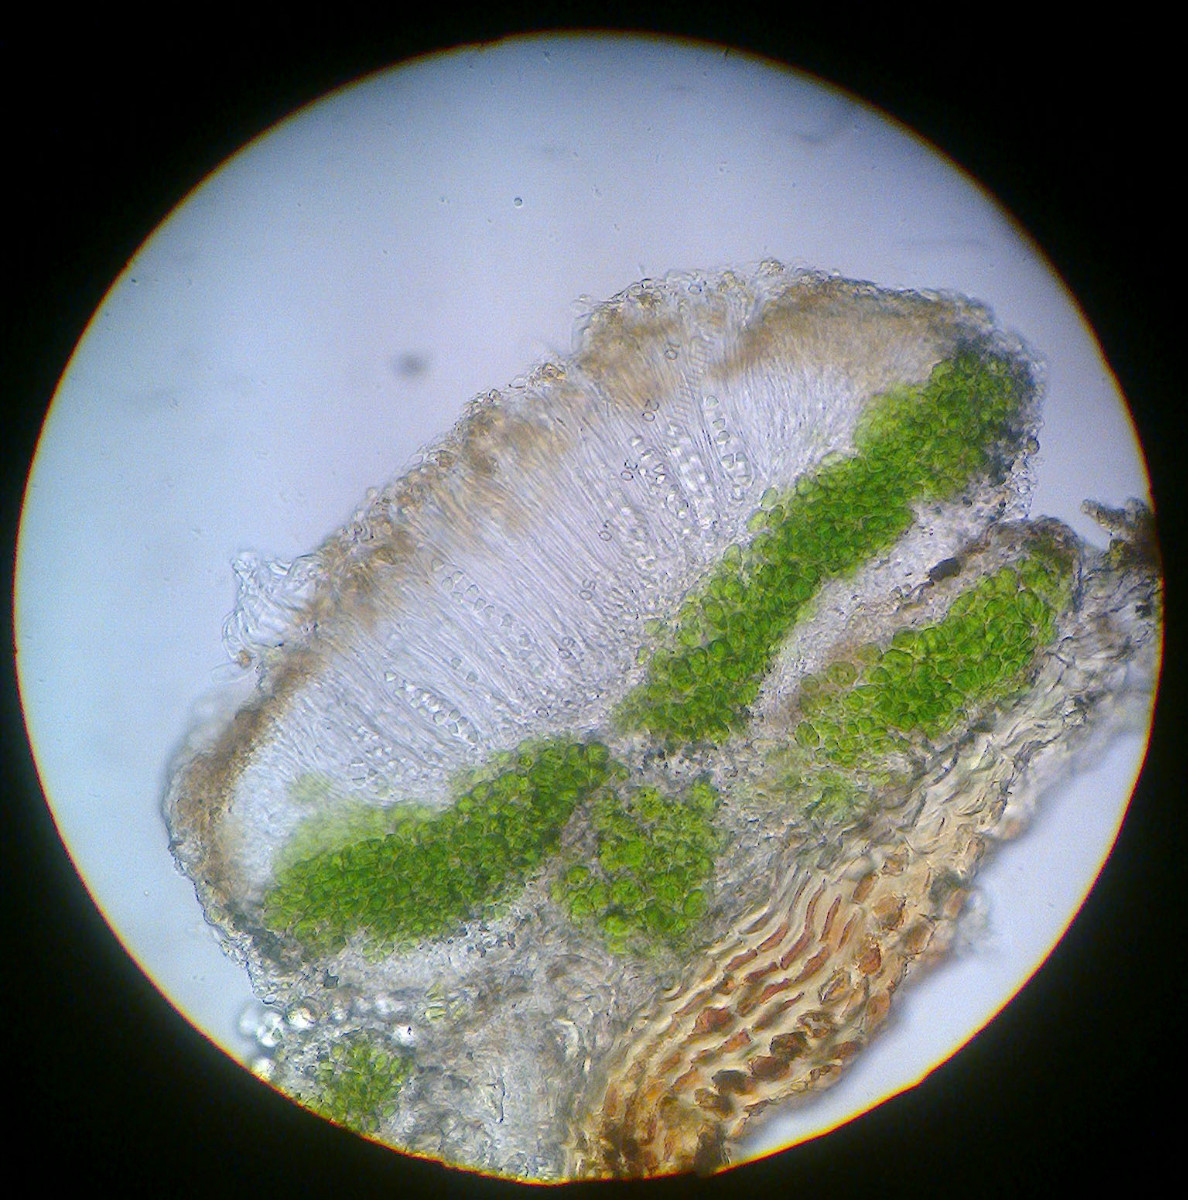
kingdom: Fungi
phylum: Ascomycota
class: Lecanoromycetes
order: Teloschistales
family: Teloschistaceae
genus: Athallia
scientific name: Athallia cerinelloides
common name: citrongul orangelav
